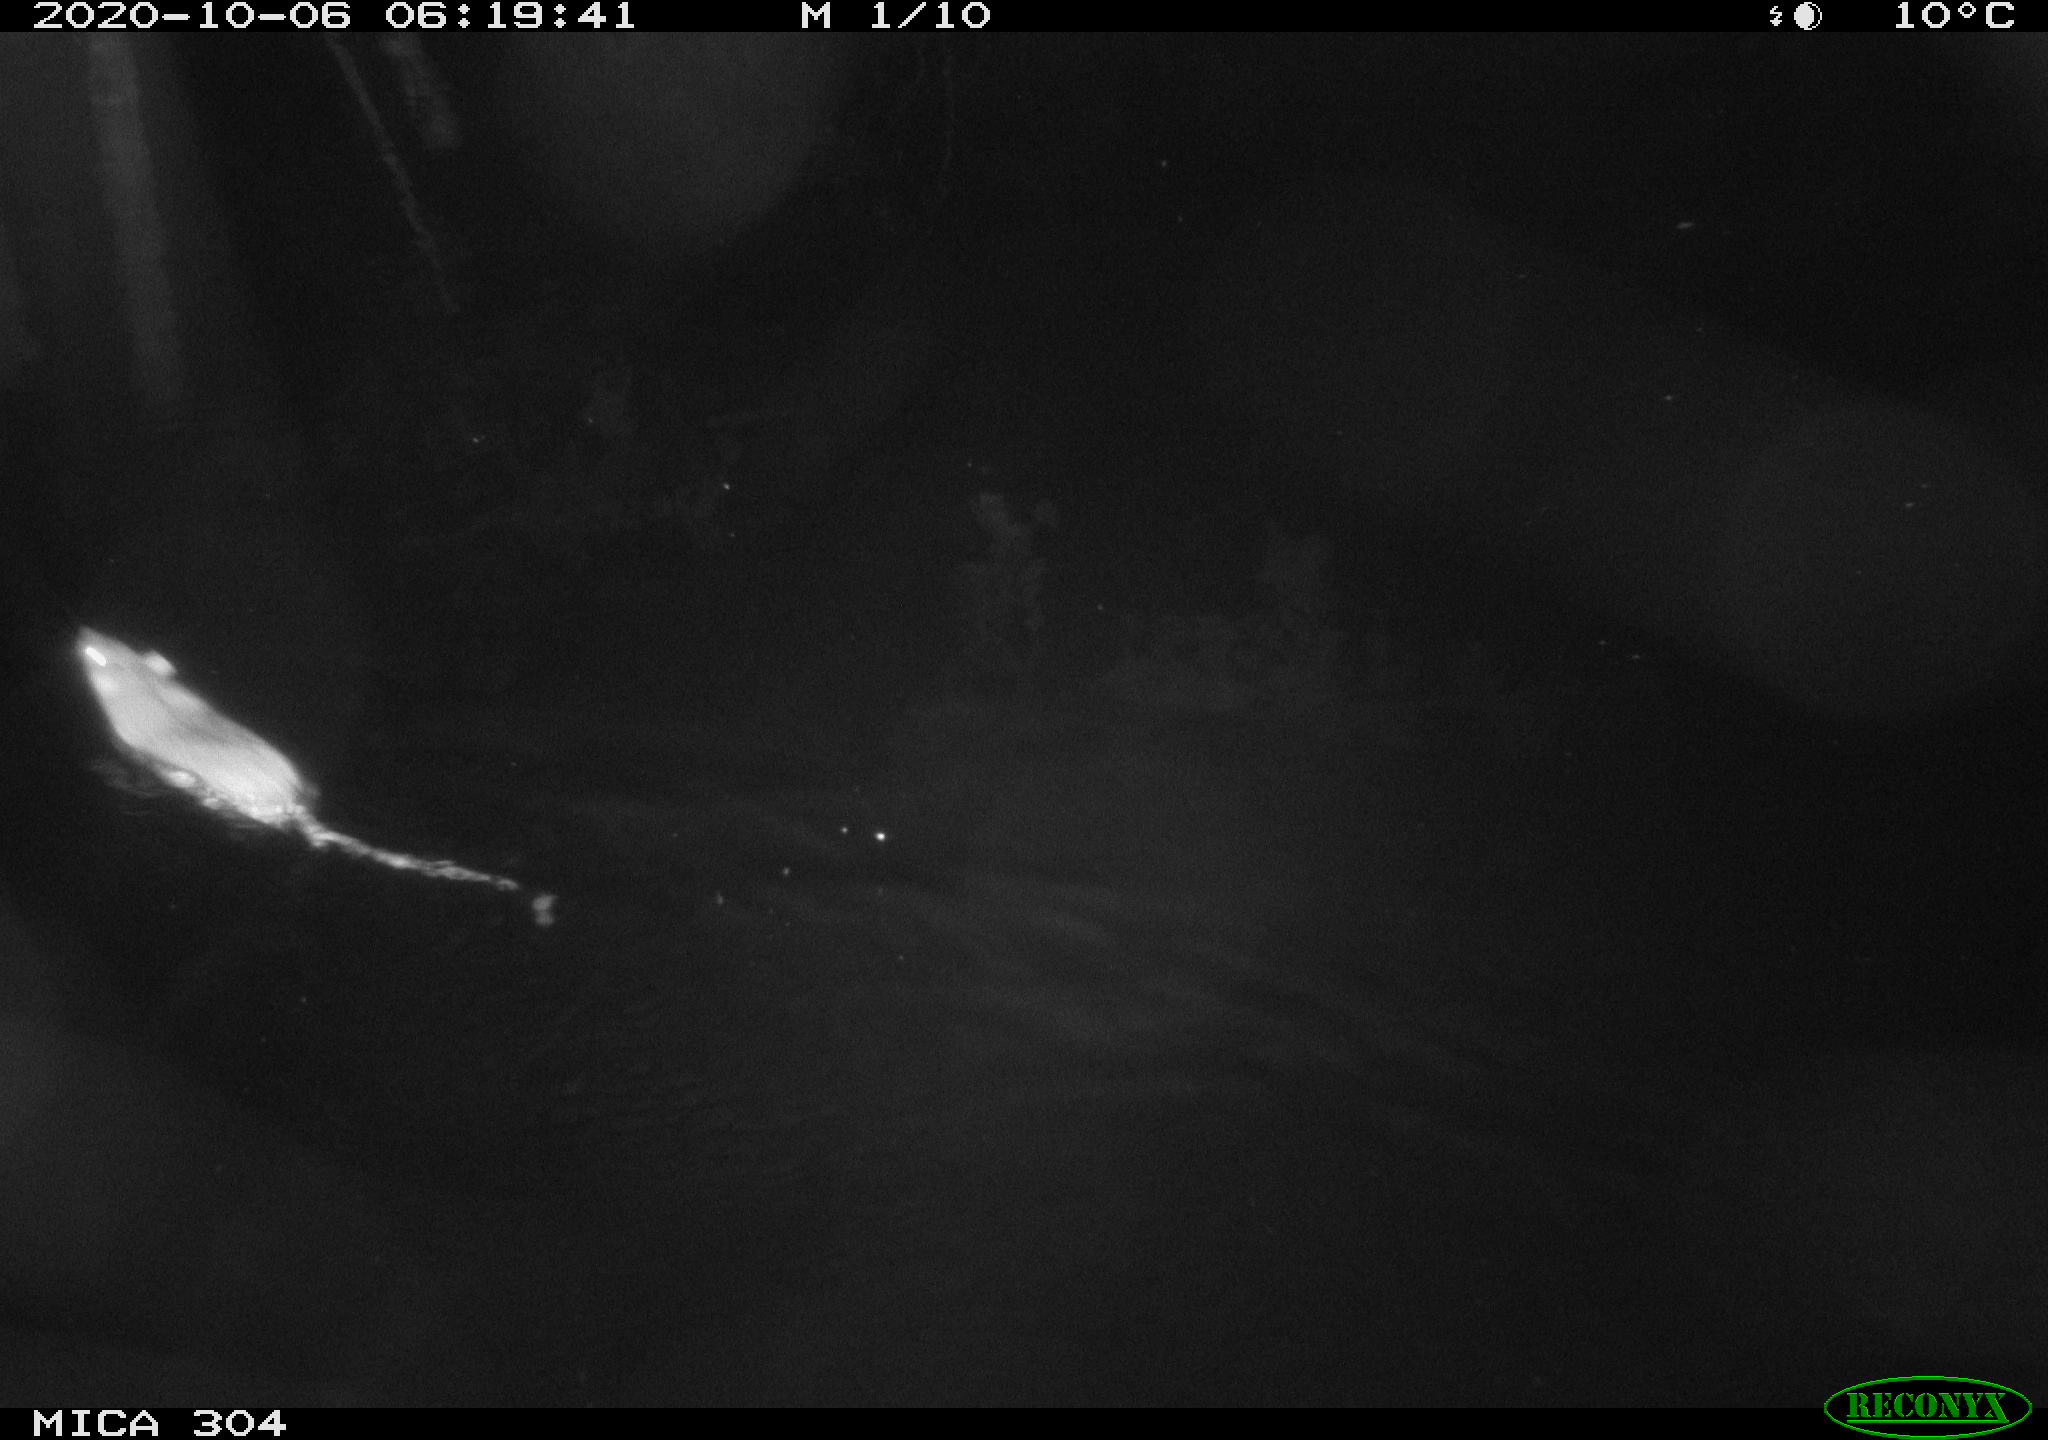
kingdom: Animalia
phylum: Chordata
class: Mammalia
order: Rodentia
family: Muridae
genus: Rattus
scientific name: Rattus norvegicus
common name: Brown rat
